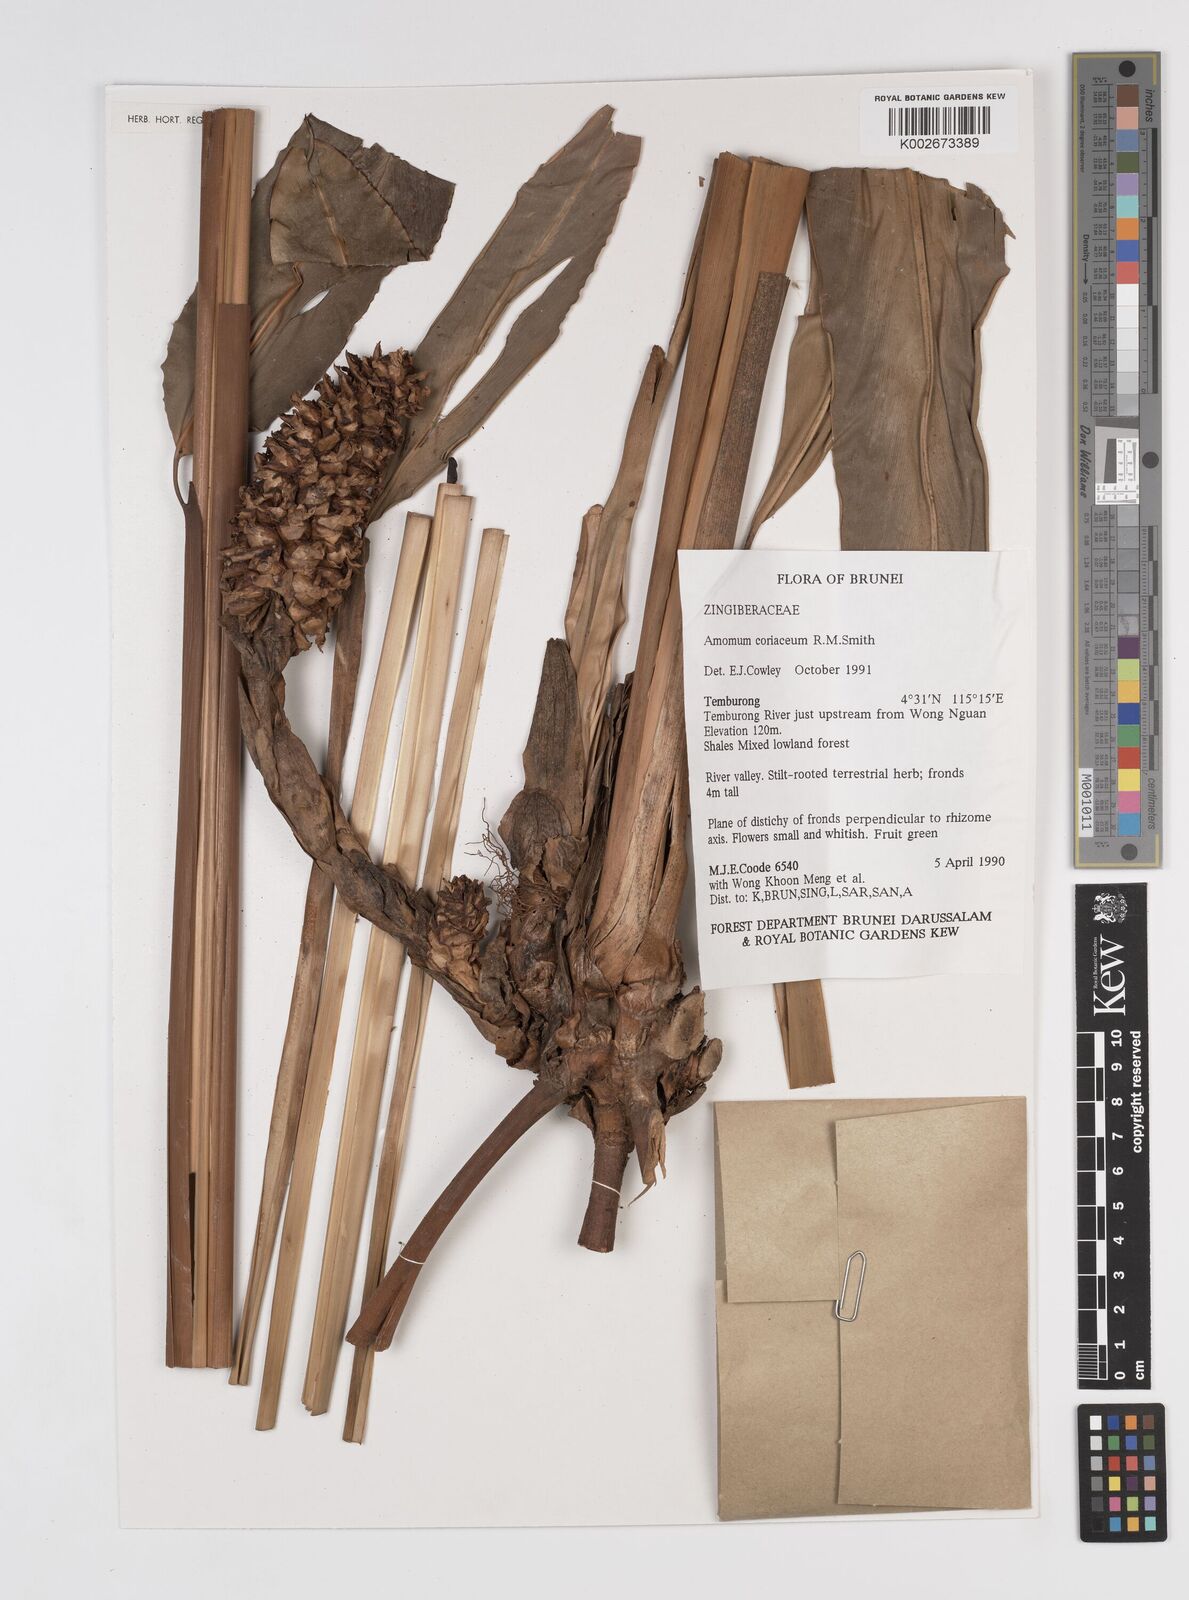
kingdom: Plantae
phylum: Tracheophyta
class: Liliopsida
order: Zingiberales
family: Zingiberaceae
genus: Conamomum
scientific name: Conamomum cylindrostachys
